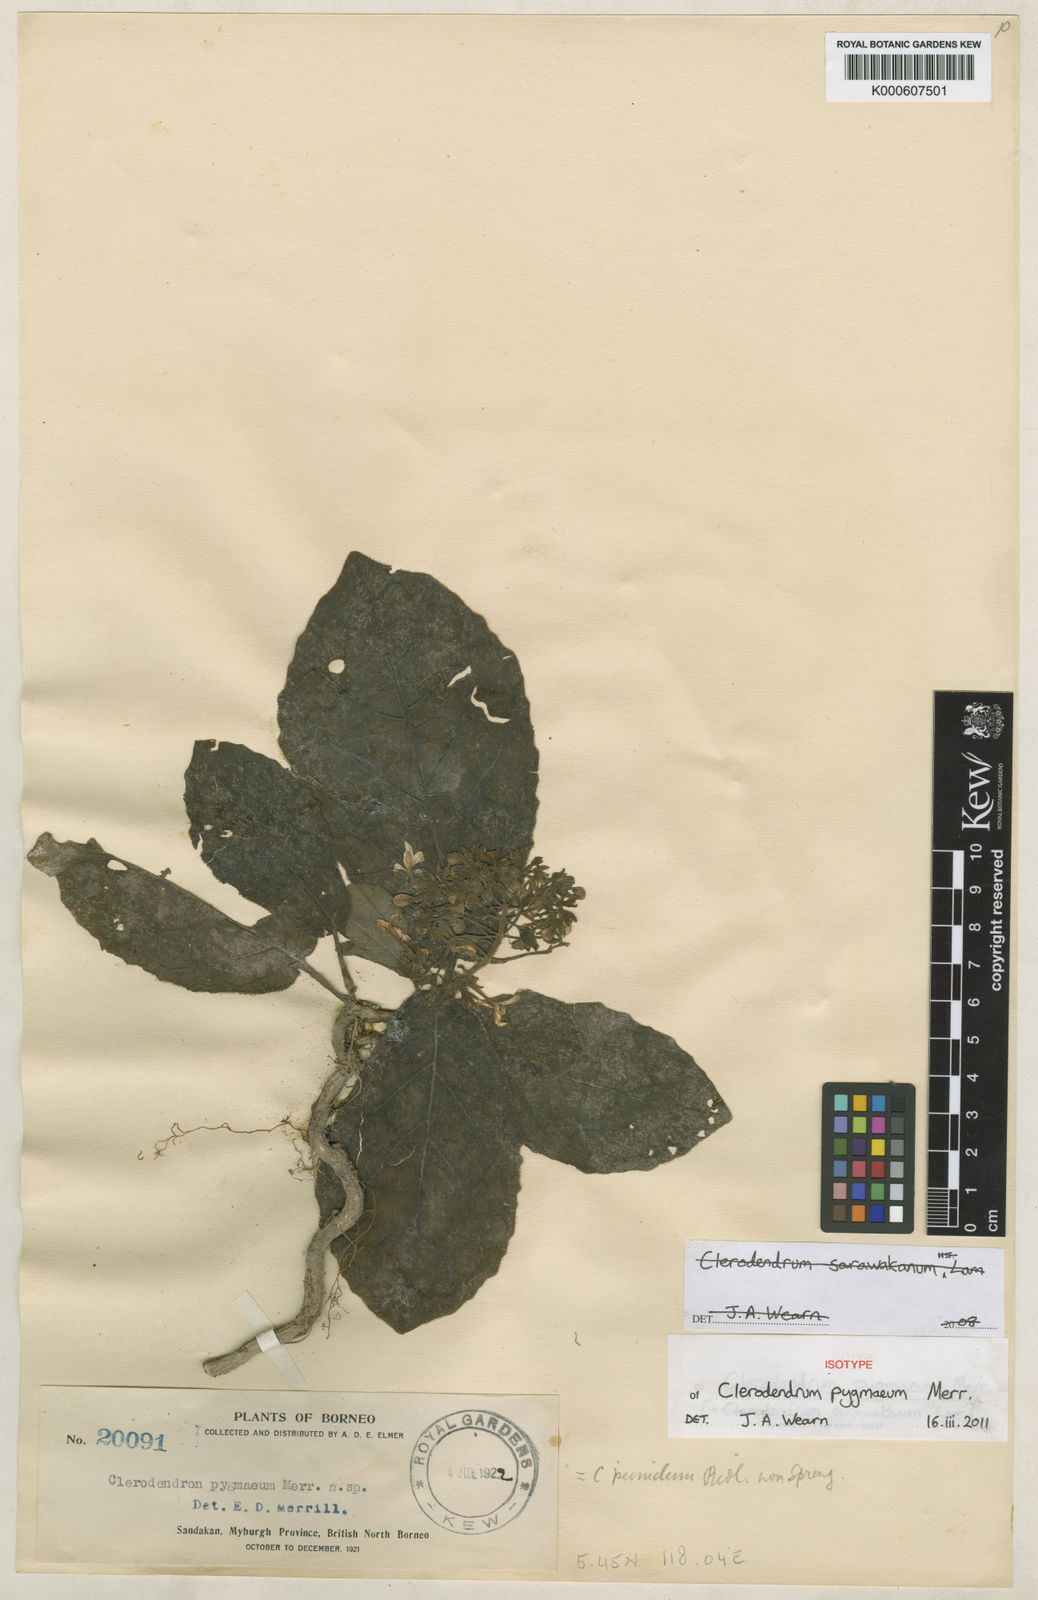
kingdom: Plantae
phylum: Tracheophyta
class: Magnoliopsida
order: Lamiales
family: Lamiaceae
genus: Clerodendrum
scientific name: Clerodendrum pygmaeum
